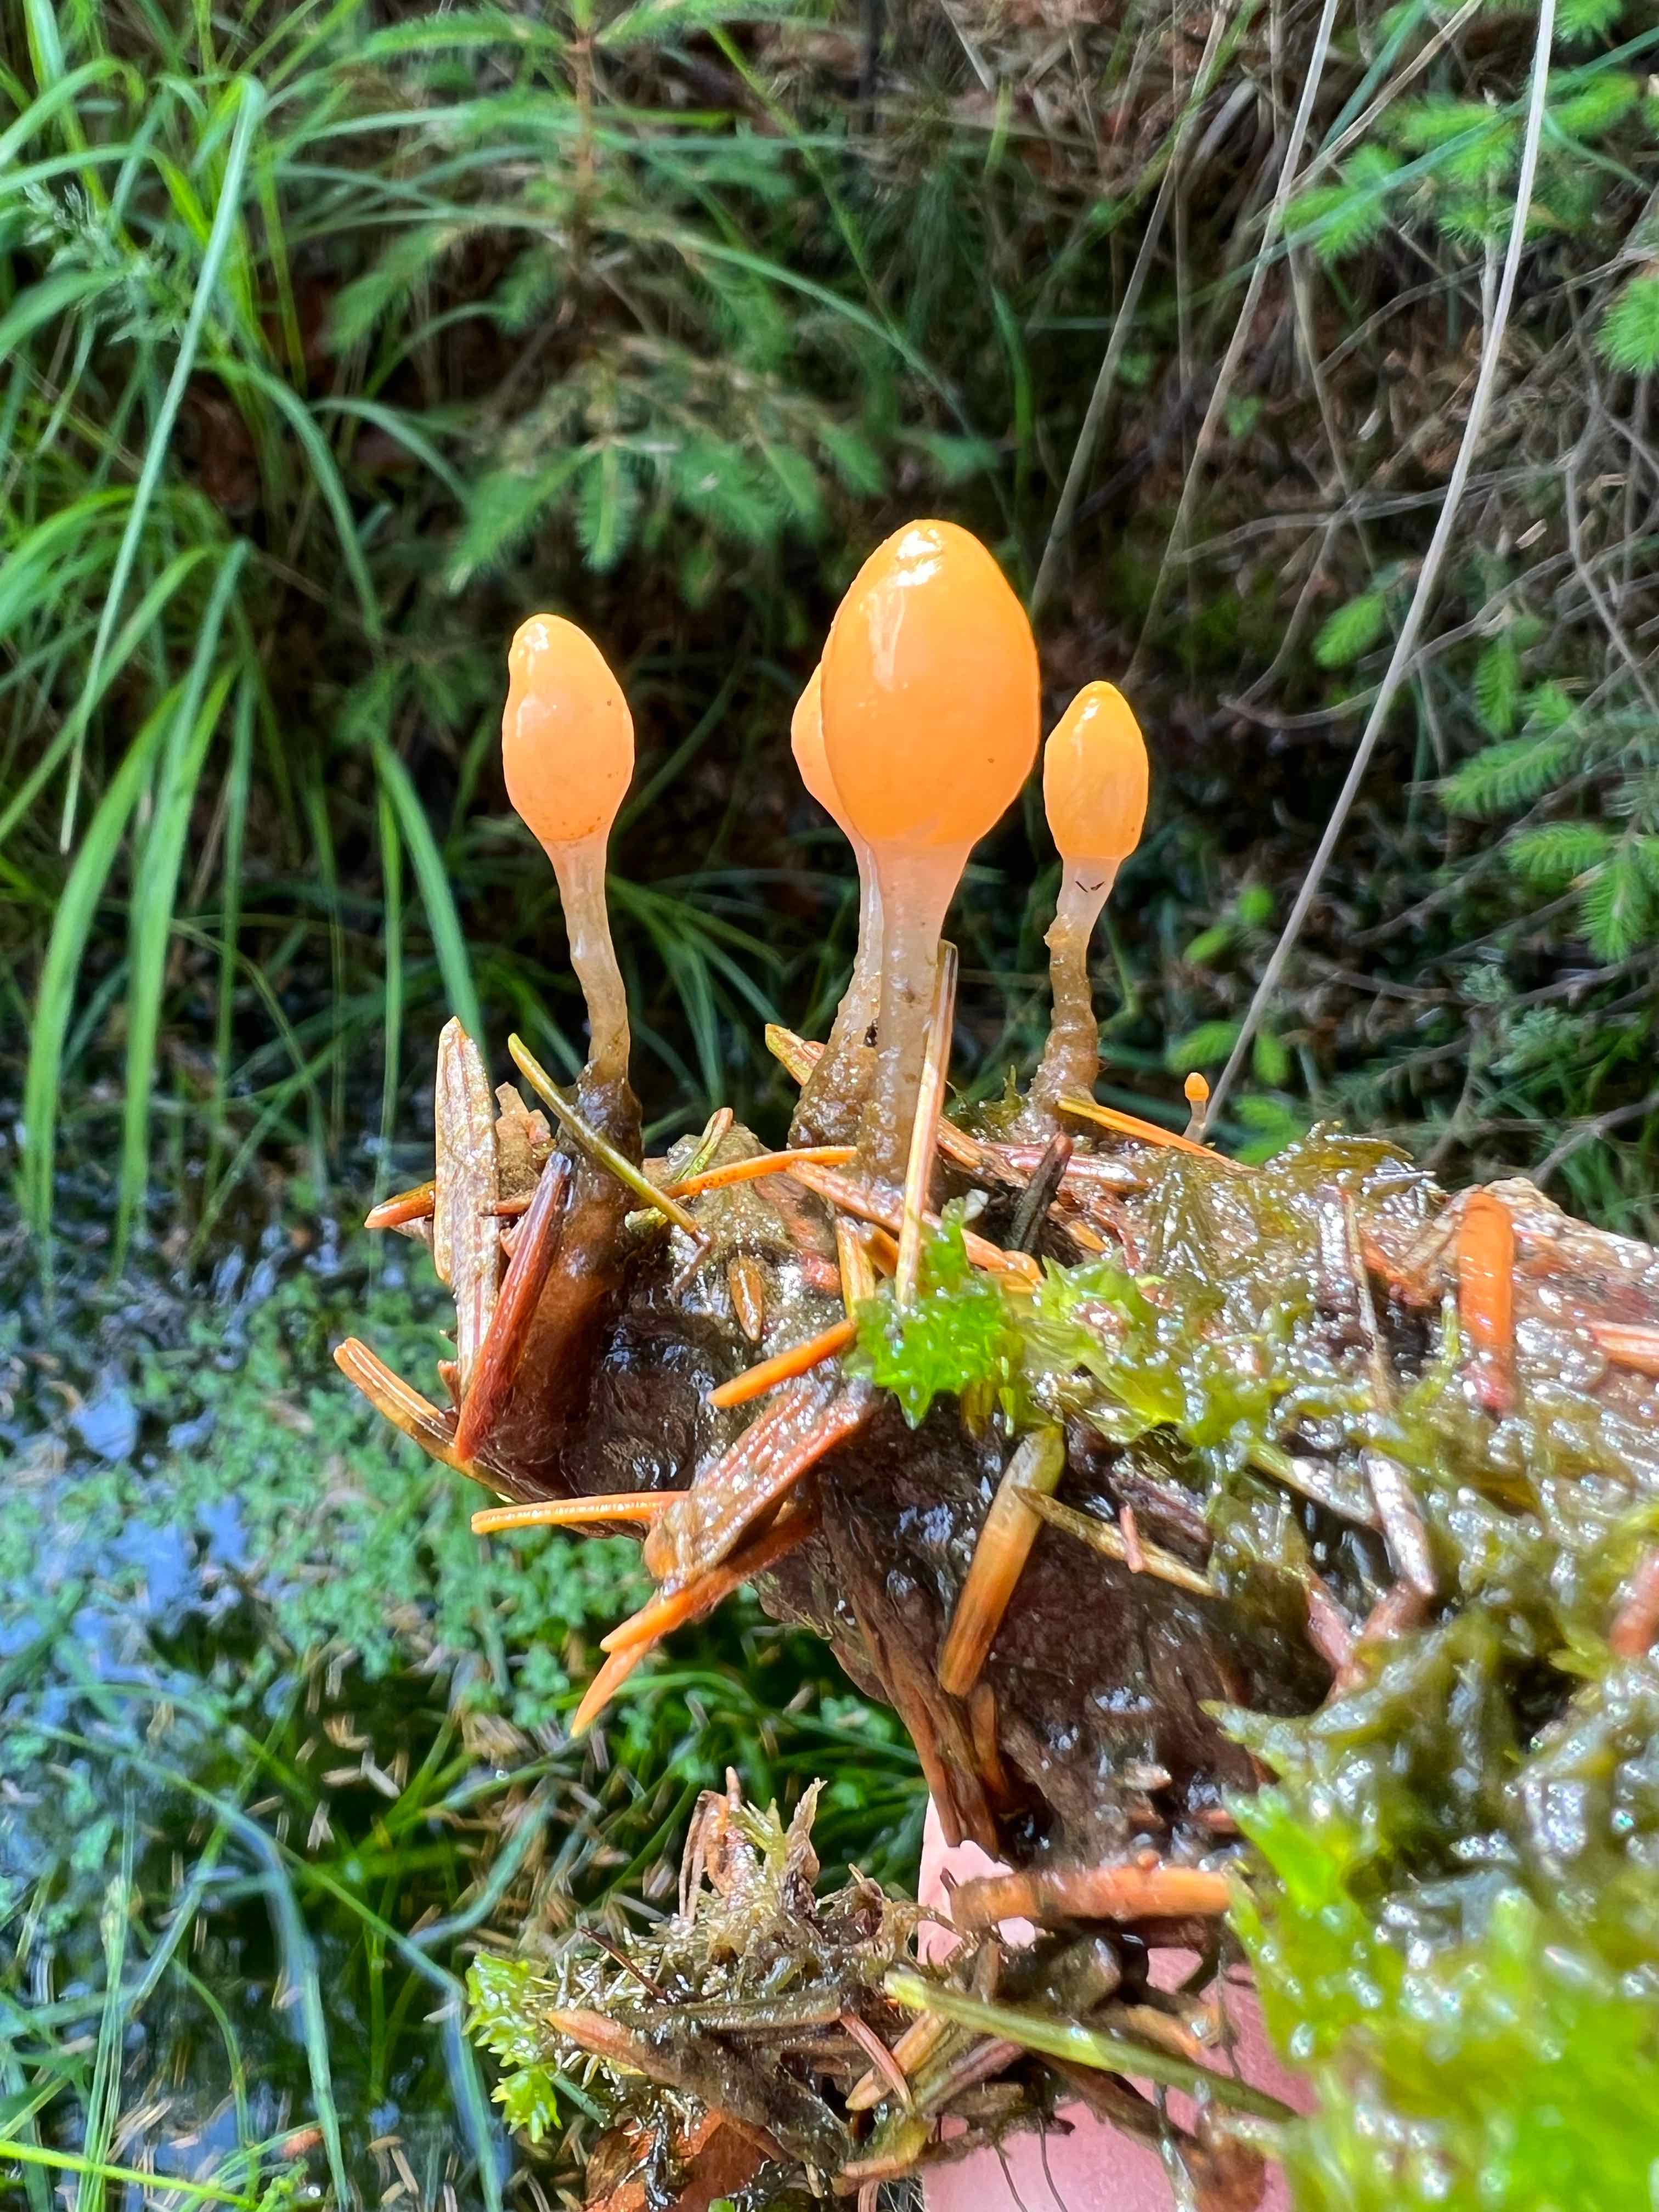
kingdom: Fungi
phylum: Ascomycota
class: Leotiomycetes
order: Helotiales
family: Cenangiaceae
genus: Mitrula
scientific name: Mitrula paludosa
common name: gul nøkketunge
